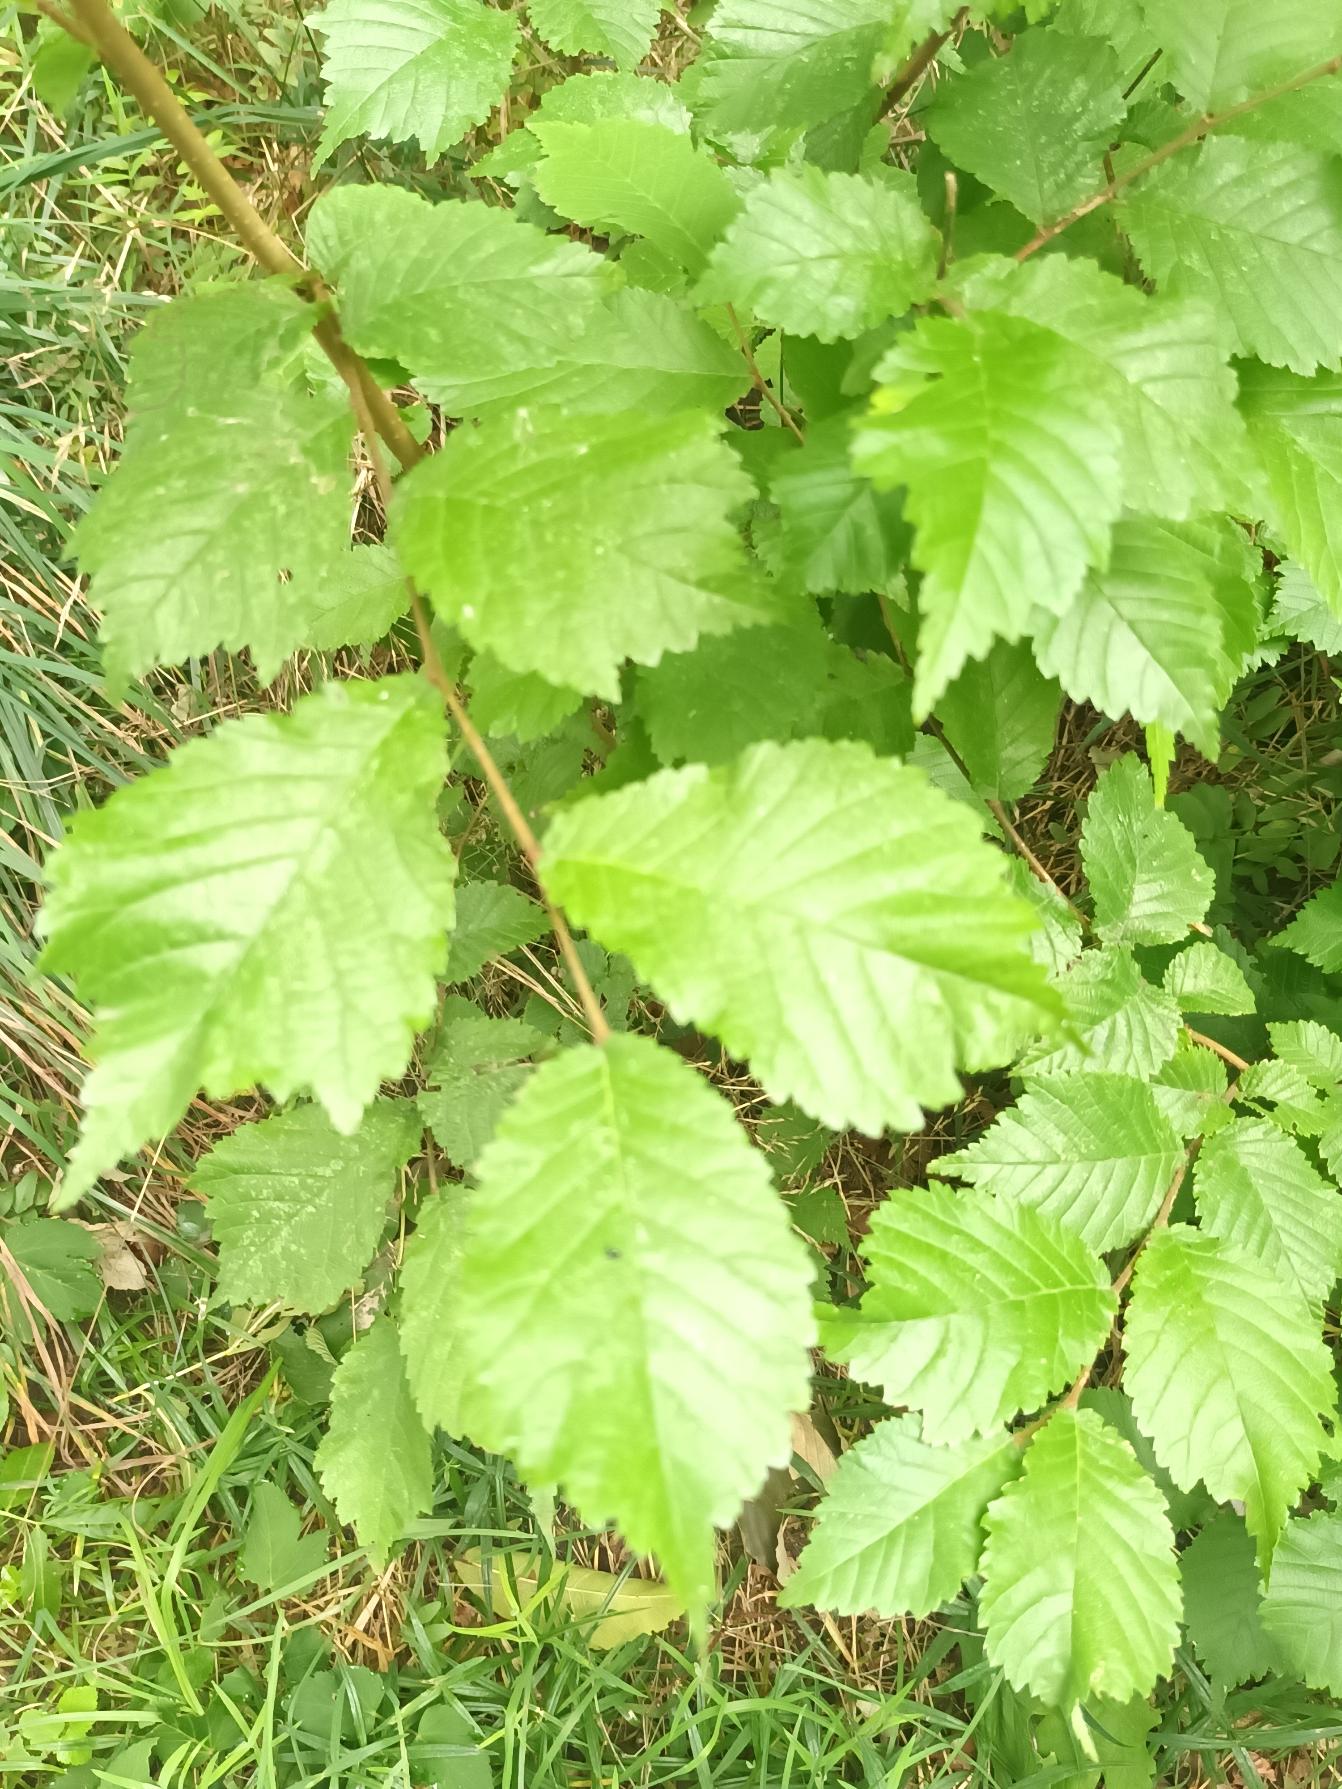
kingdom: Plantae
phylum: Tracheophyta
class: Magnoliopsida
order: Rosales
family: Ulmaceae
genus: Ulmus
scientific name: Ulmus glabra
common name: Skov-elm/storbladet elm
